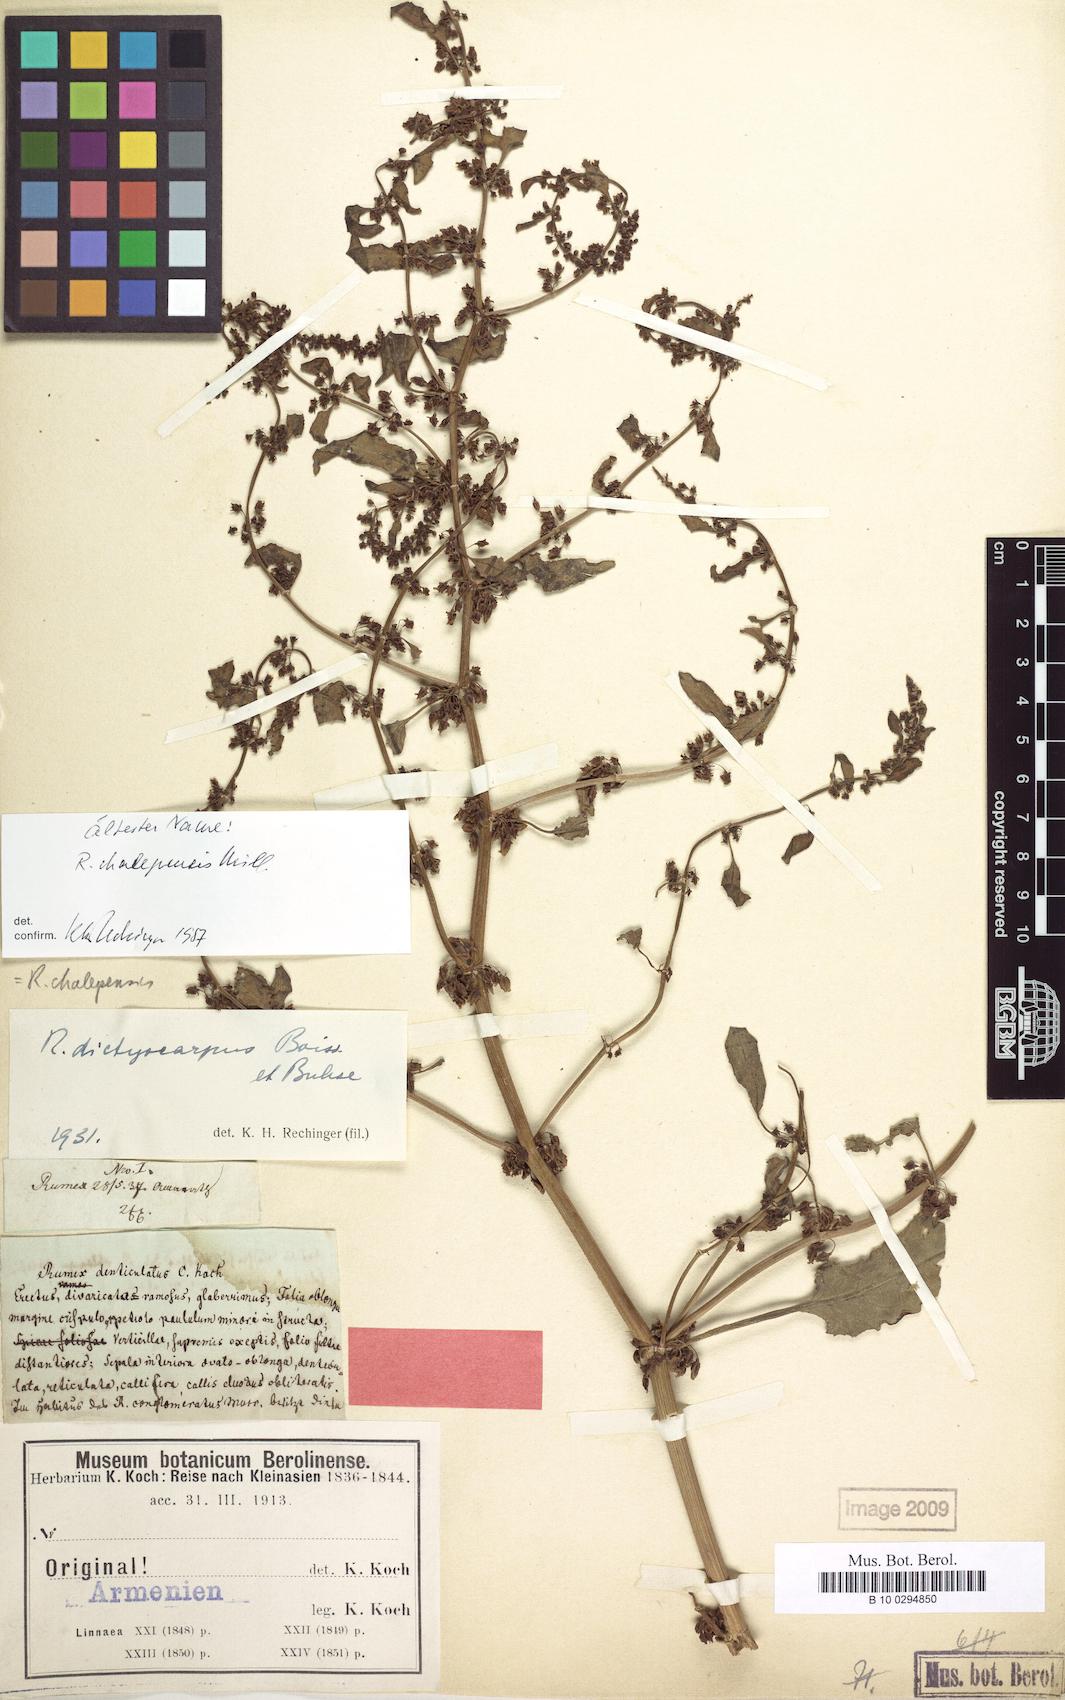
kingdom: Plantae
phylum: Tracheophyta
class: Magnoliopsida
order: Caryophyllales
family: Polygonaceae
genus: Rumex
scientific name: Rumex chalepensis
